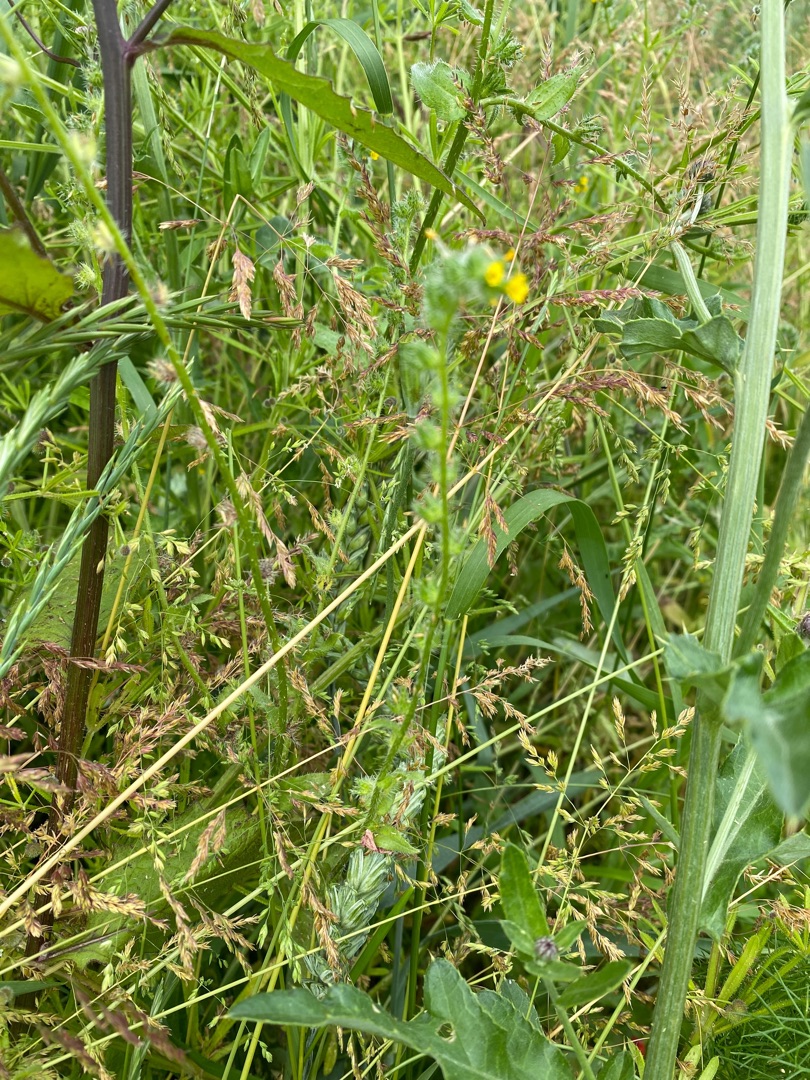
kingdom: Plantae
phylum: Tracheophyta
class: Magnoliopsida
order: Boraginales
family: Boraginaceae
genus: Amsinckia
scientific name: Amsinckia menziesii
